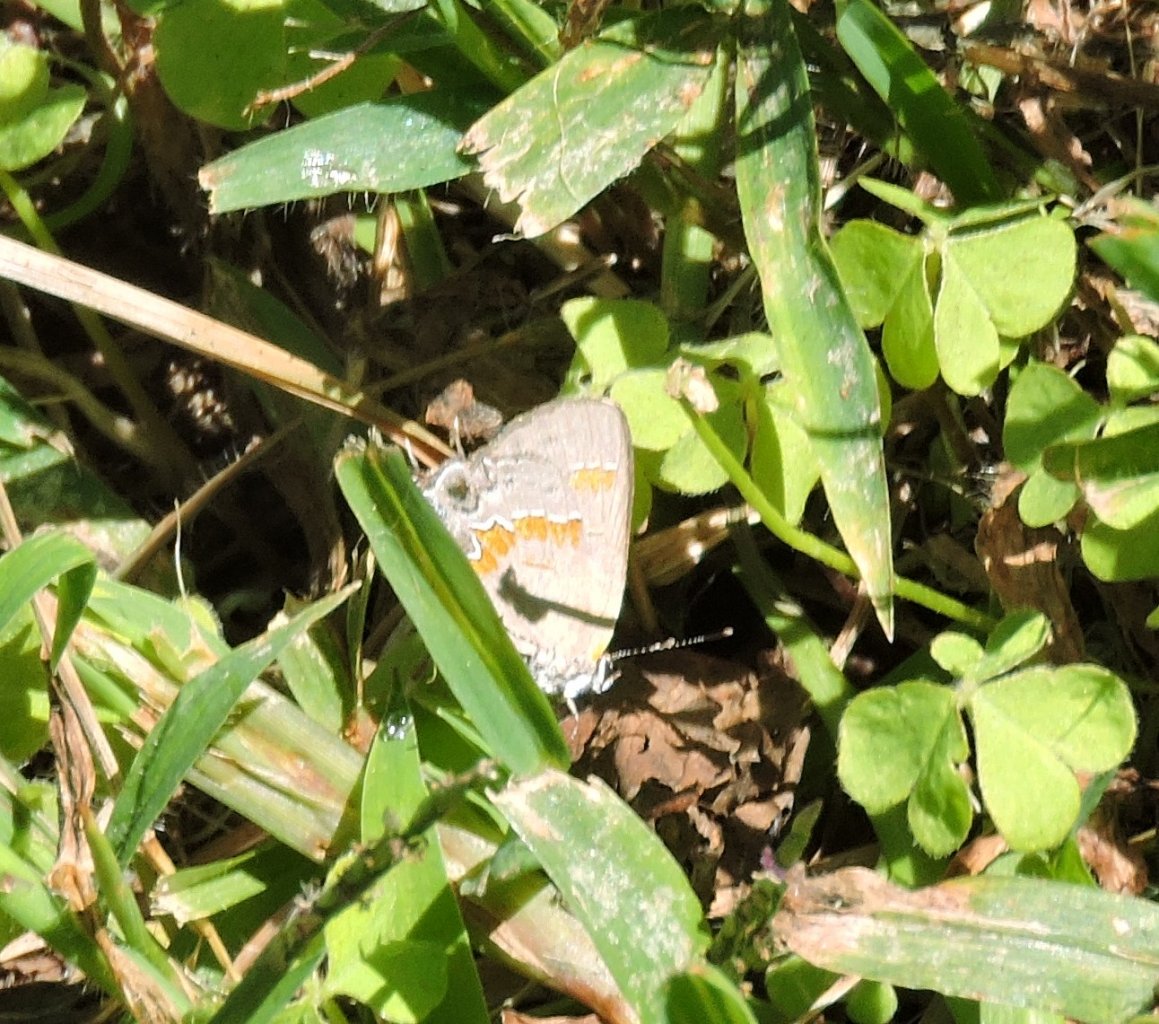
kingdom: Animalia
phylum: Arthropoda
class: Insecta
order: Lepidoptera
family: Lycaenidae
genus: Calycopis
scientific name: Calycopis cecrops
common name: Red-banded Hairstreak
